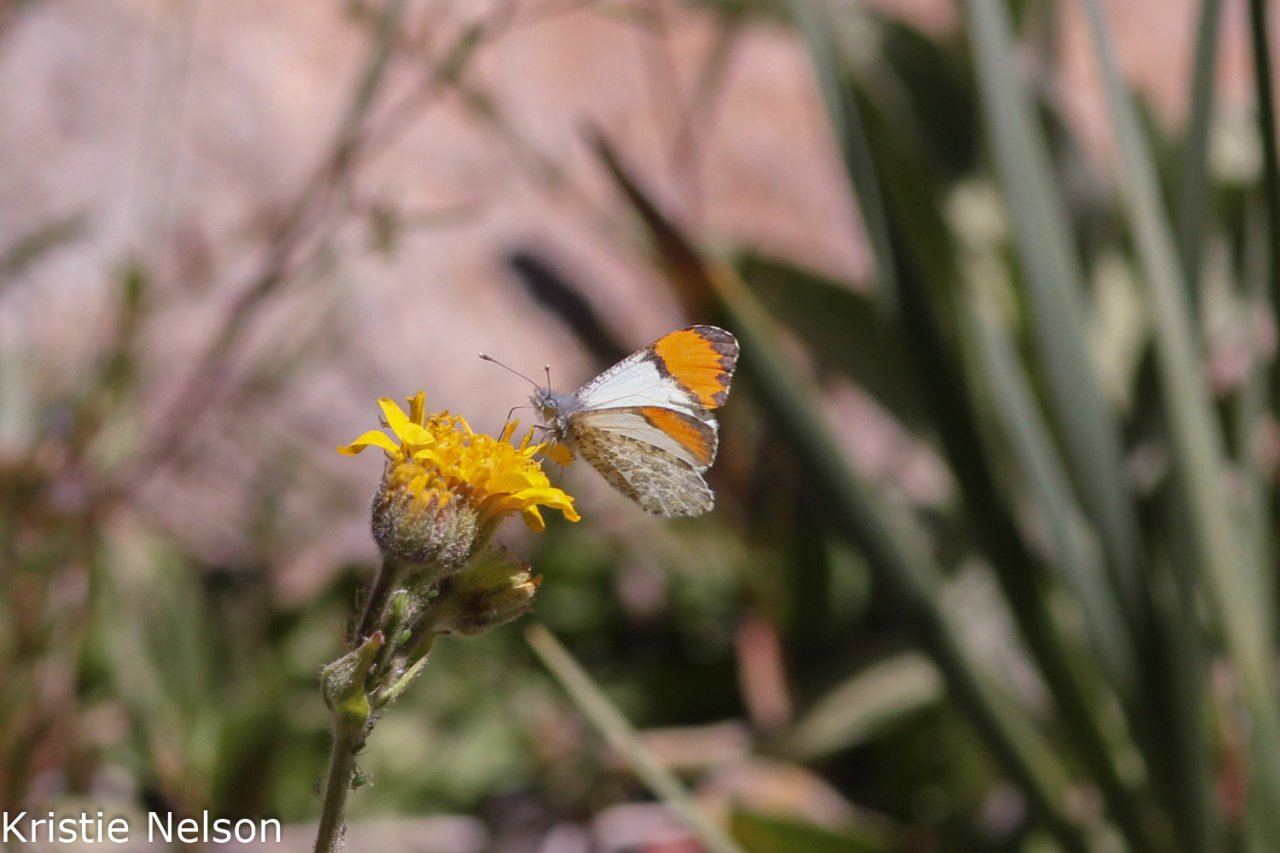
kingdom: Animalia
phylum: Arthropoda
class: Insecta
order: Lepidoptera
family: Pieridae
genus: Anthocharis
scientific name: Anthocharis sara
